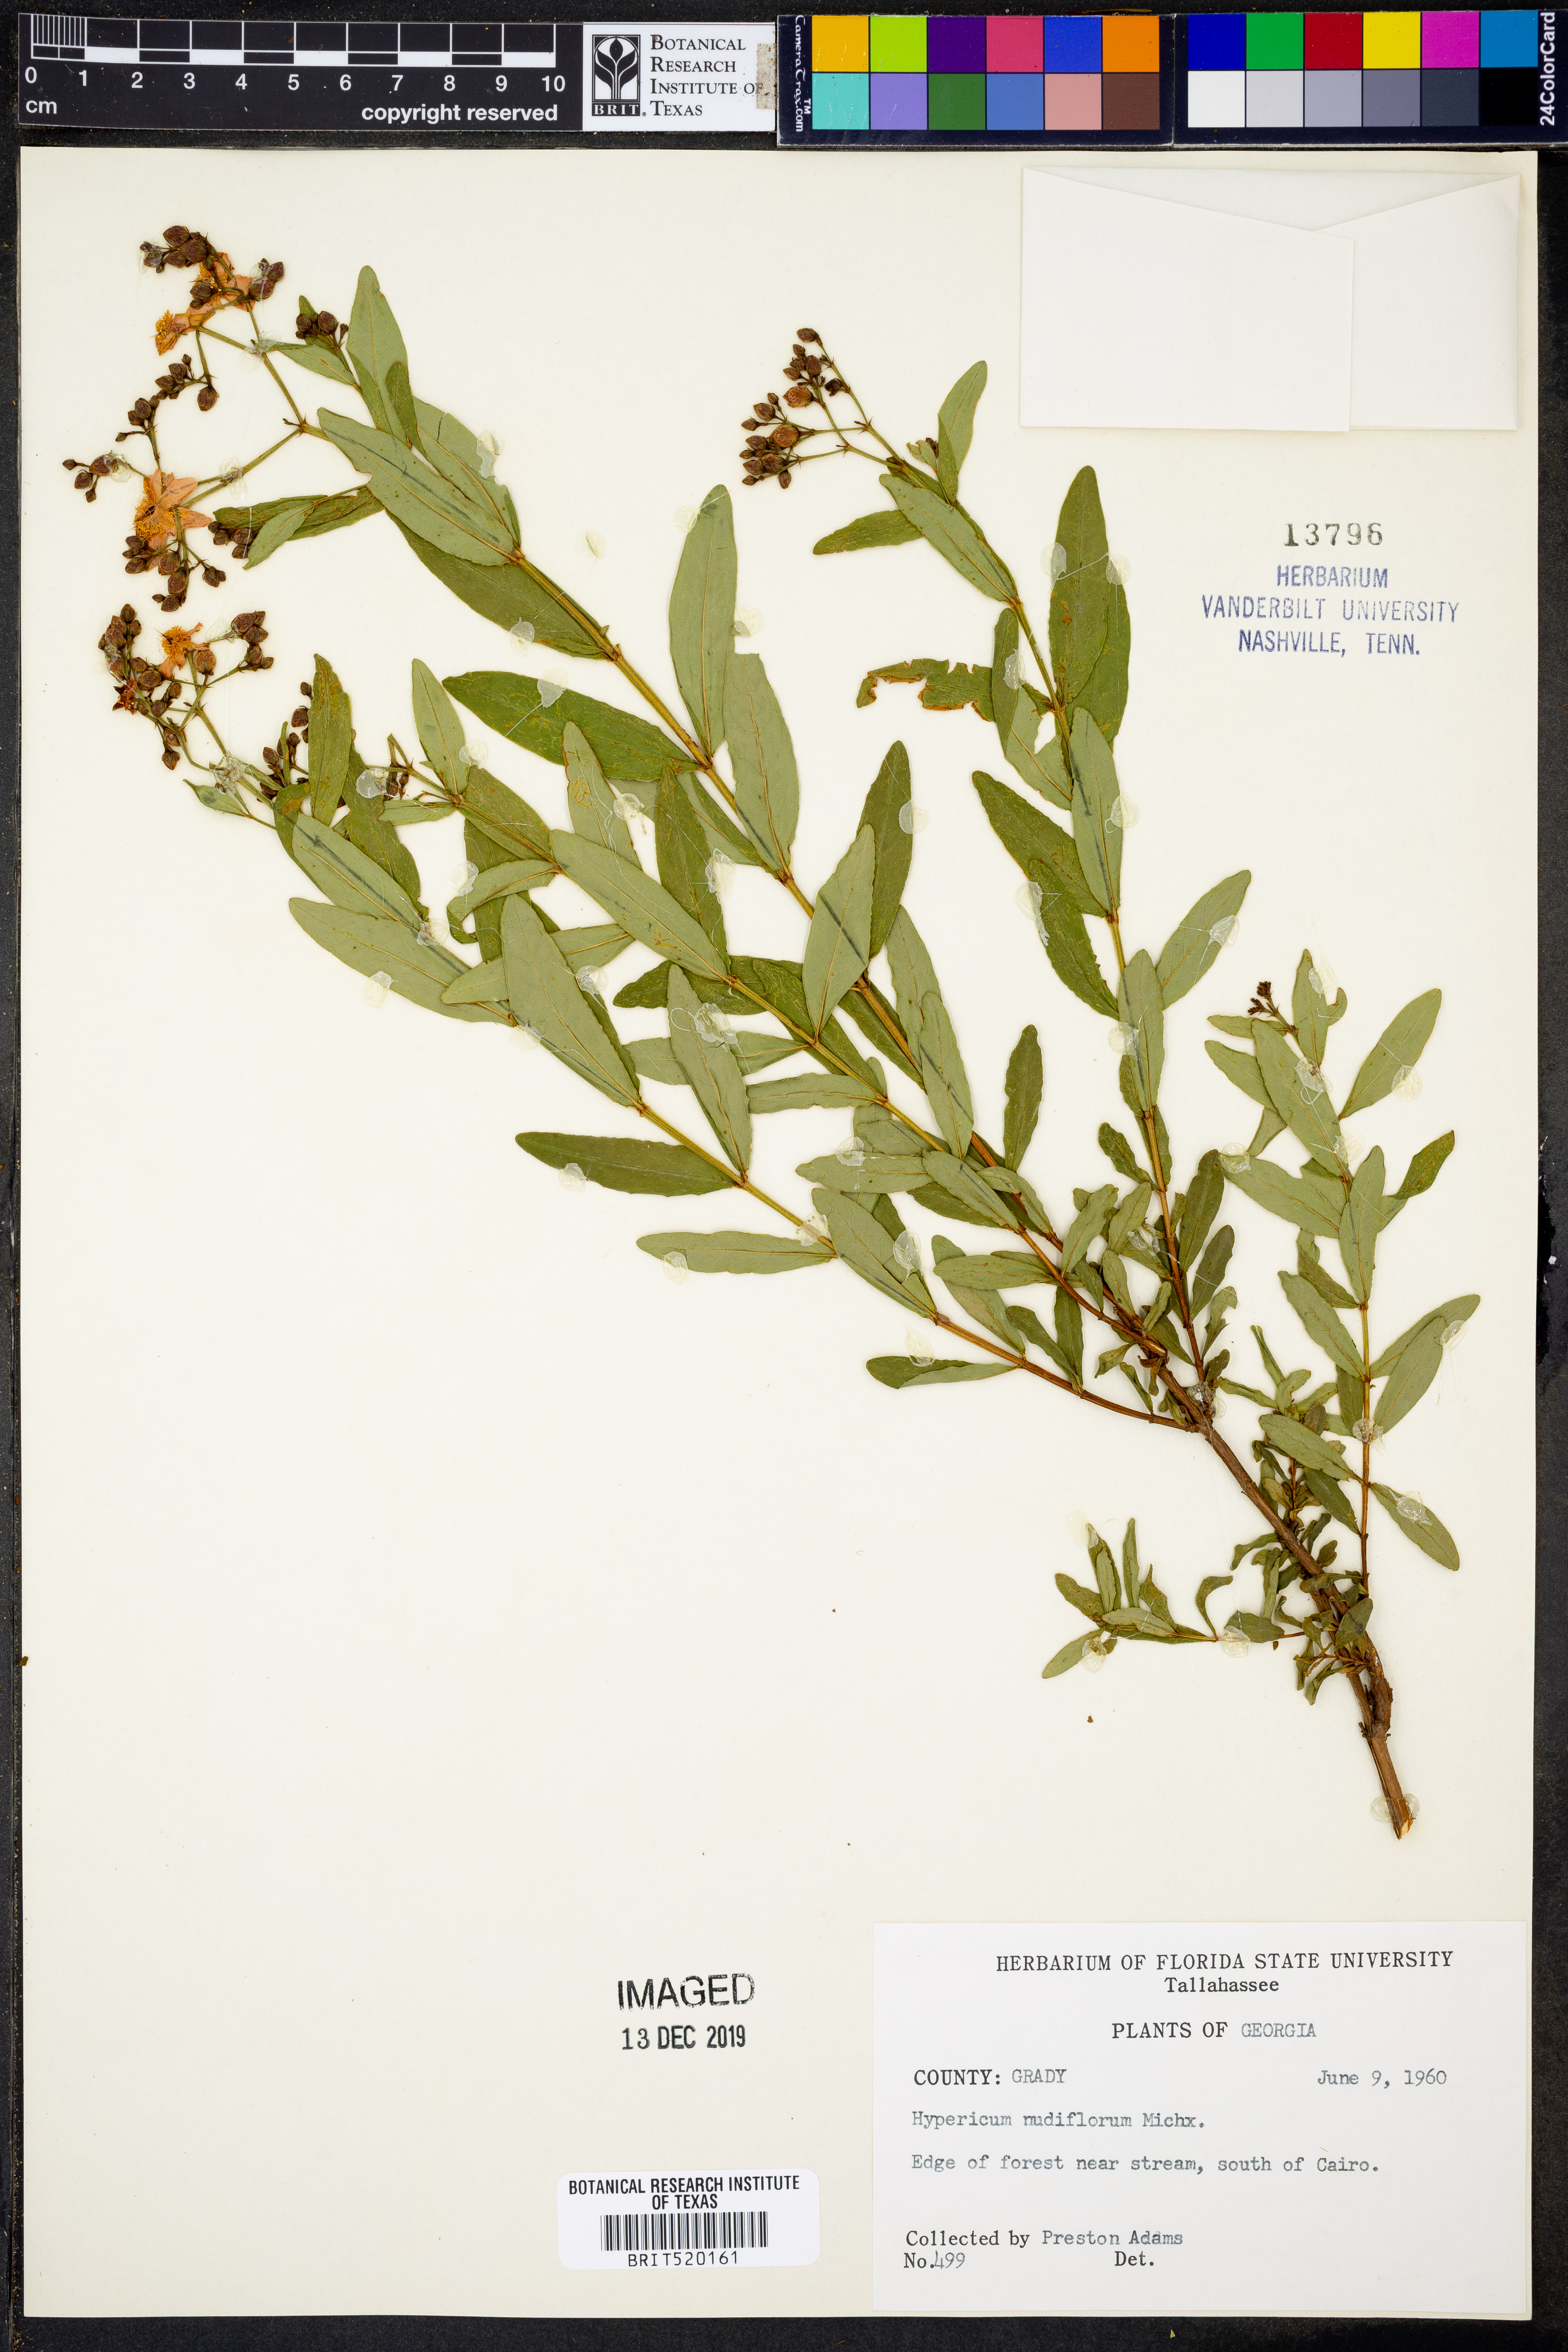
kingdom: Plantae
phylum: Tracheophyta
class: Magnoliopsida
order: Malpighiales
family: Hypericaceae
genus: Hypericum
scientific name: Hypericum nudiflorum
